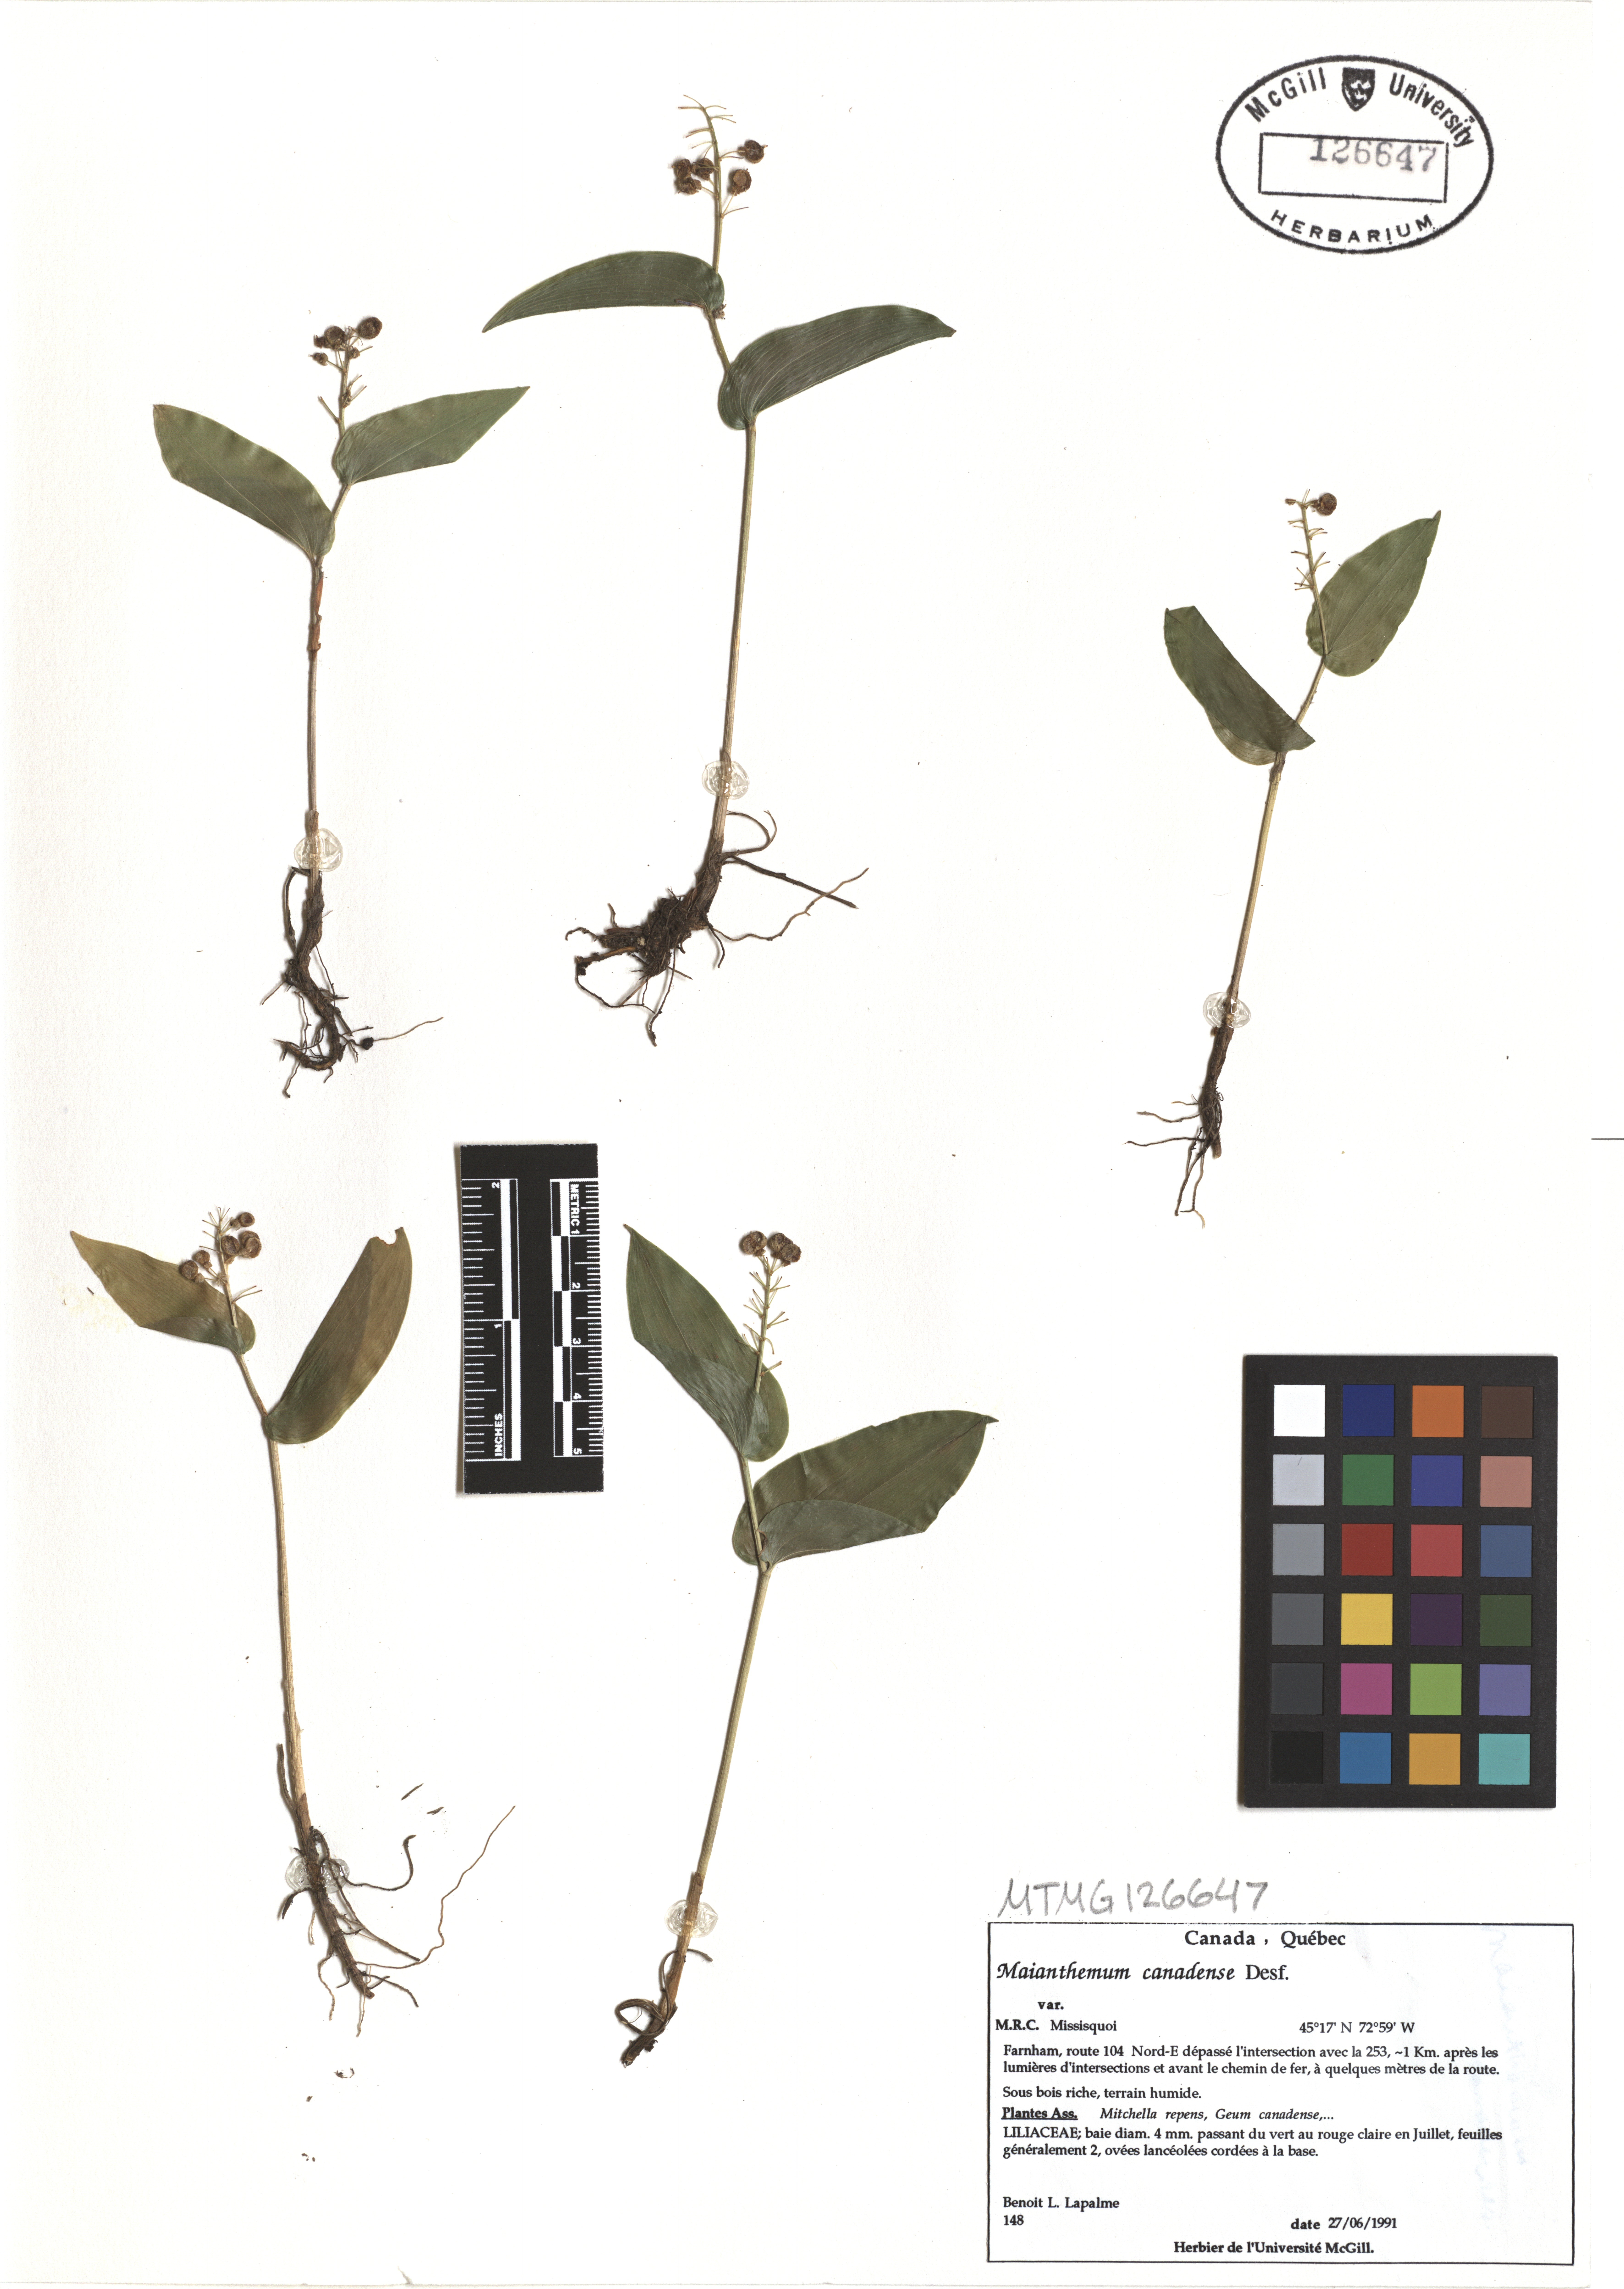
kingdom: Plantae
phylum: Tracheophyta
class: Liliopsida
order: Asparagales
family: Asparagaceae
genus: Maianthemum
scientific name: Maianthemum canadense
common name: False lily-of-the-valley
